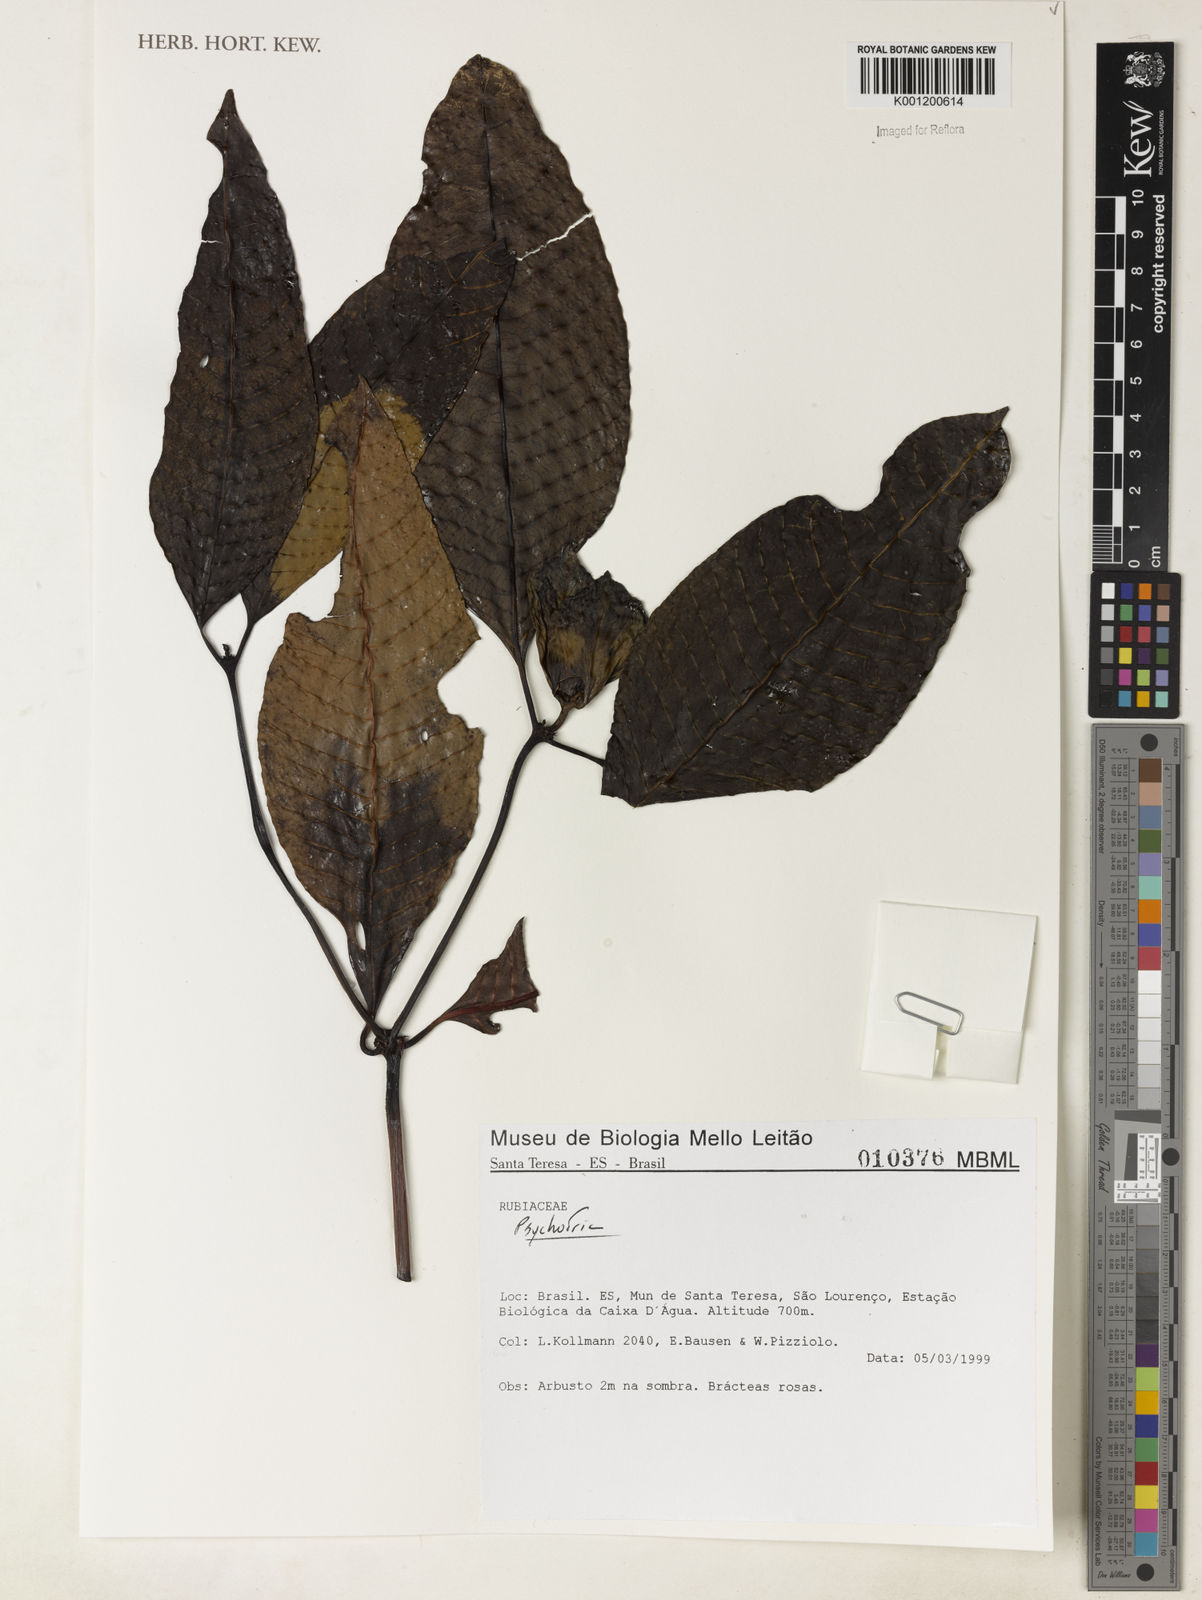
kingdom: Plantae
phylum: Tracheophyta
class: Magnoliopsida
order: Gentianales
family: Rubiaceae
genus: Psychotria
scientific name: Psychotria
